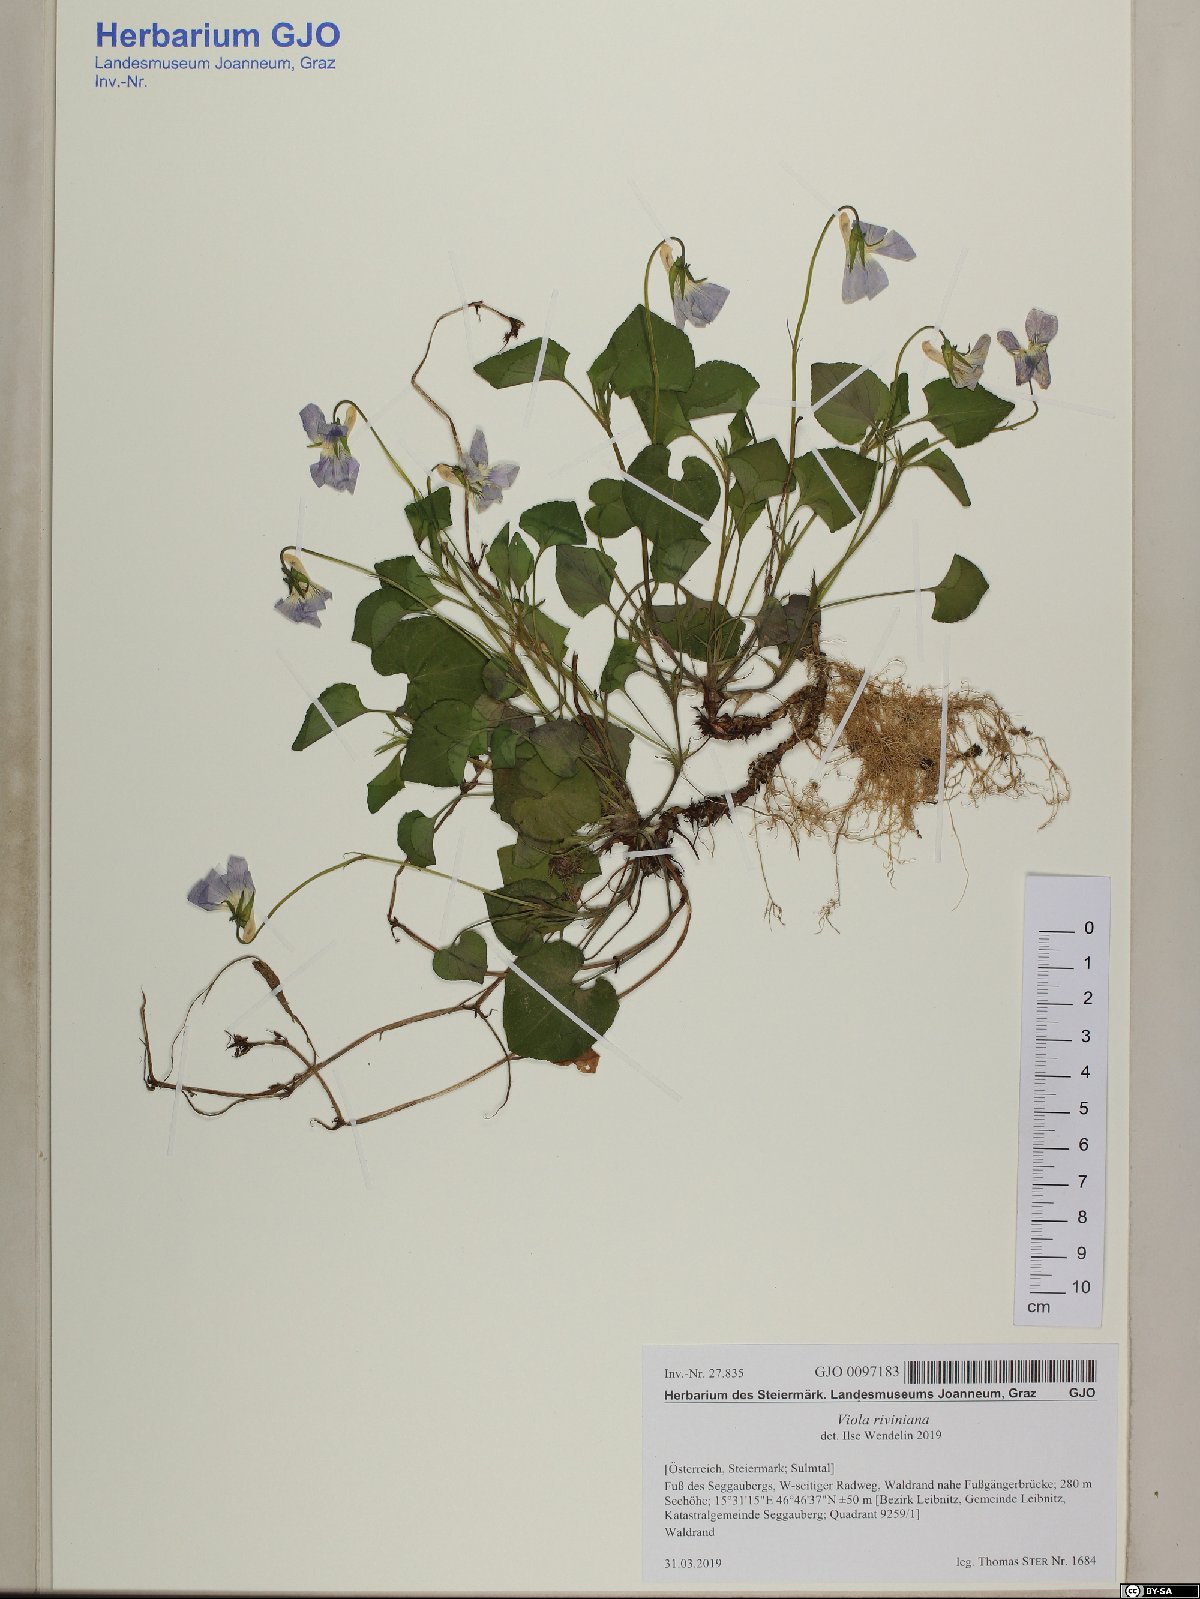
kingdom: Plantae
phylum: Tracheophyta
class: Magnoliopsida
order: Malpighiales
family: Violaceae
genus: Viola
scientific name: Viola riviniana
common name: Common dog-violet
